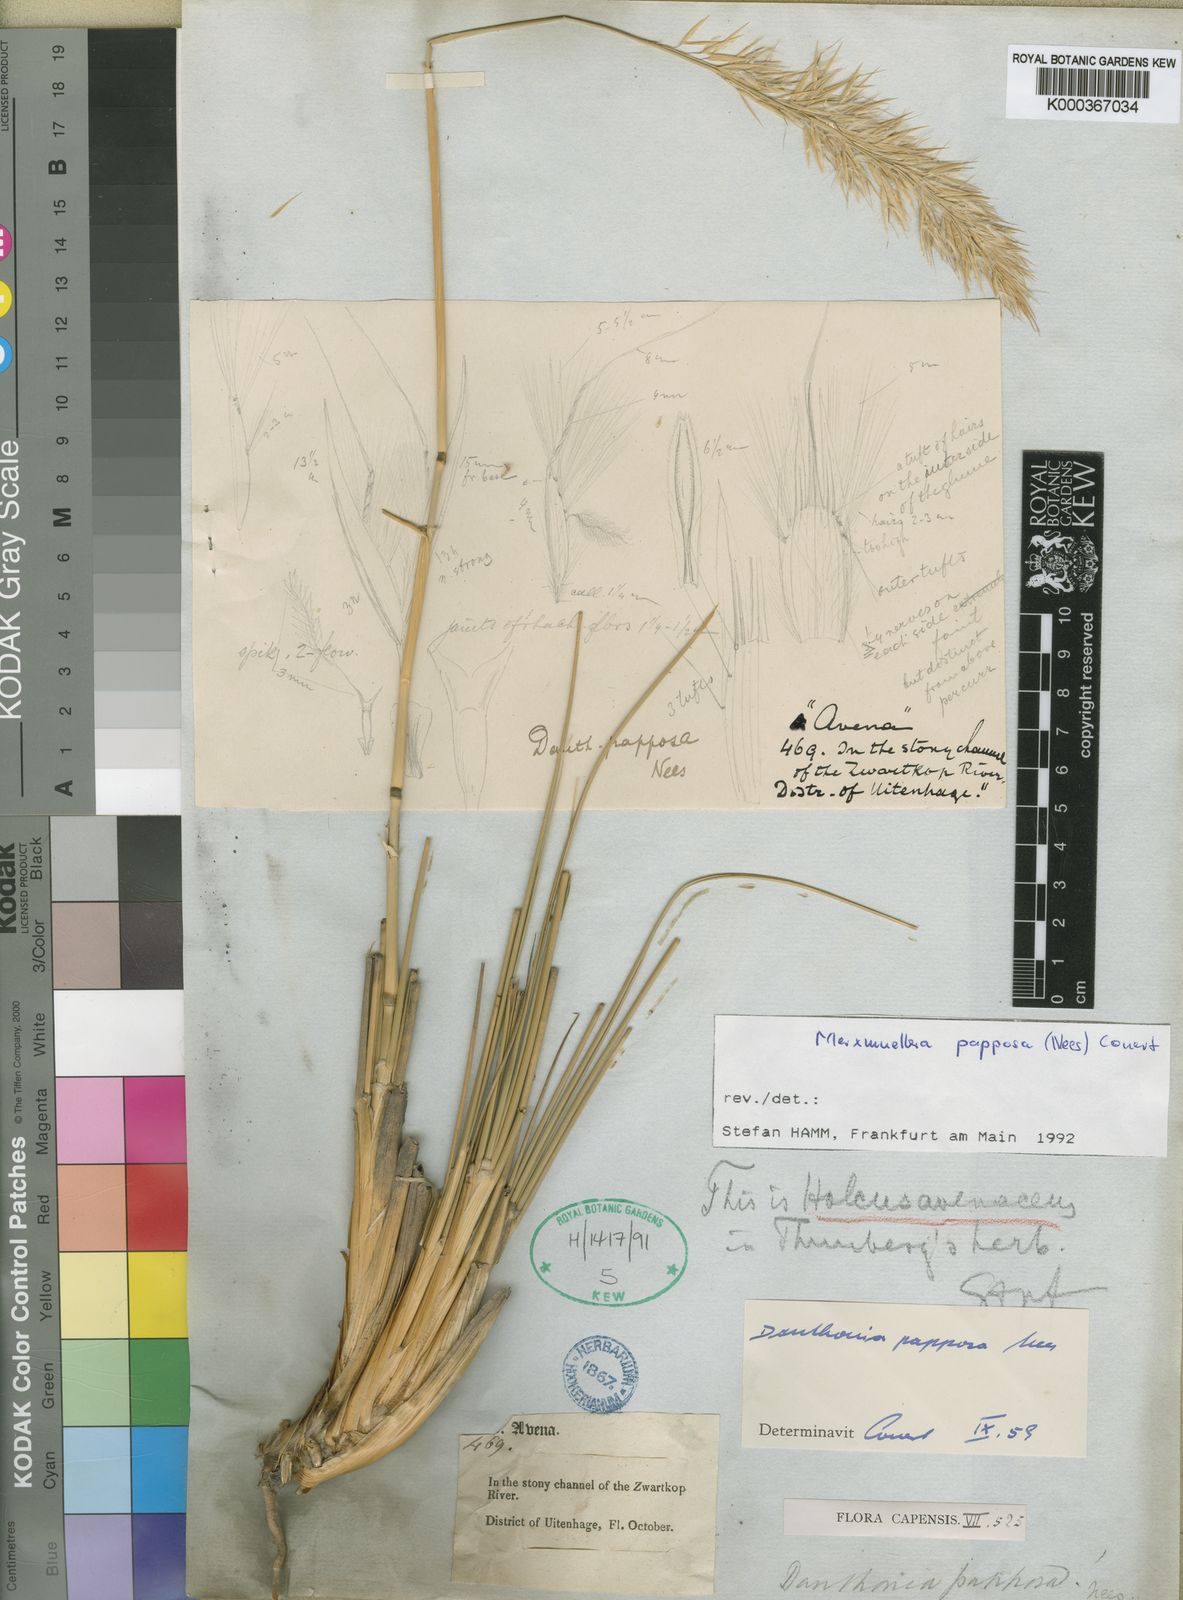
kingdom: Plantae
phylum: Tracheophyta
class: Liliopsida
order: Poales
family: Poaceae
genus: Rytidosperma
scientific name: Rytidosperma
